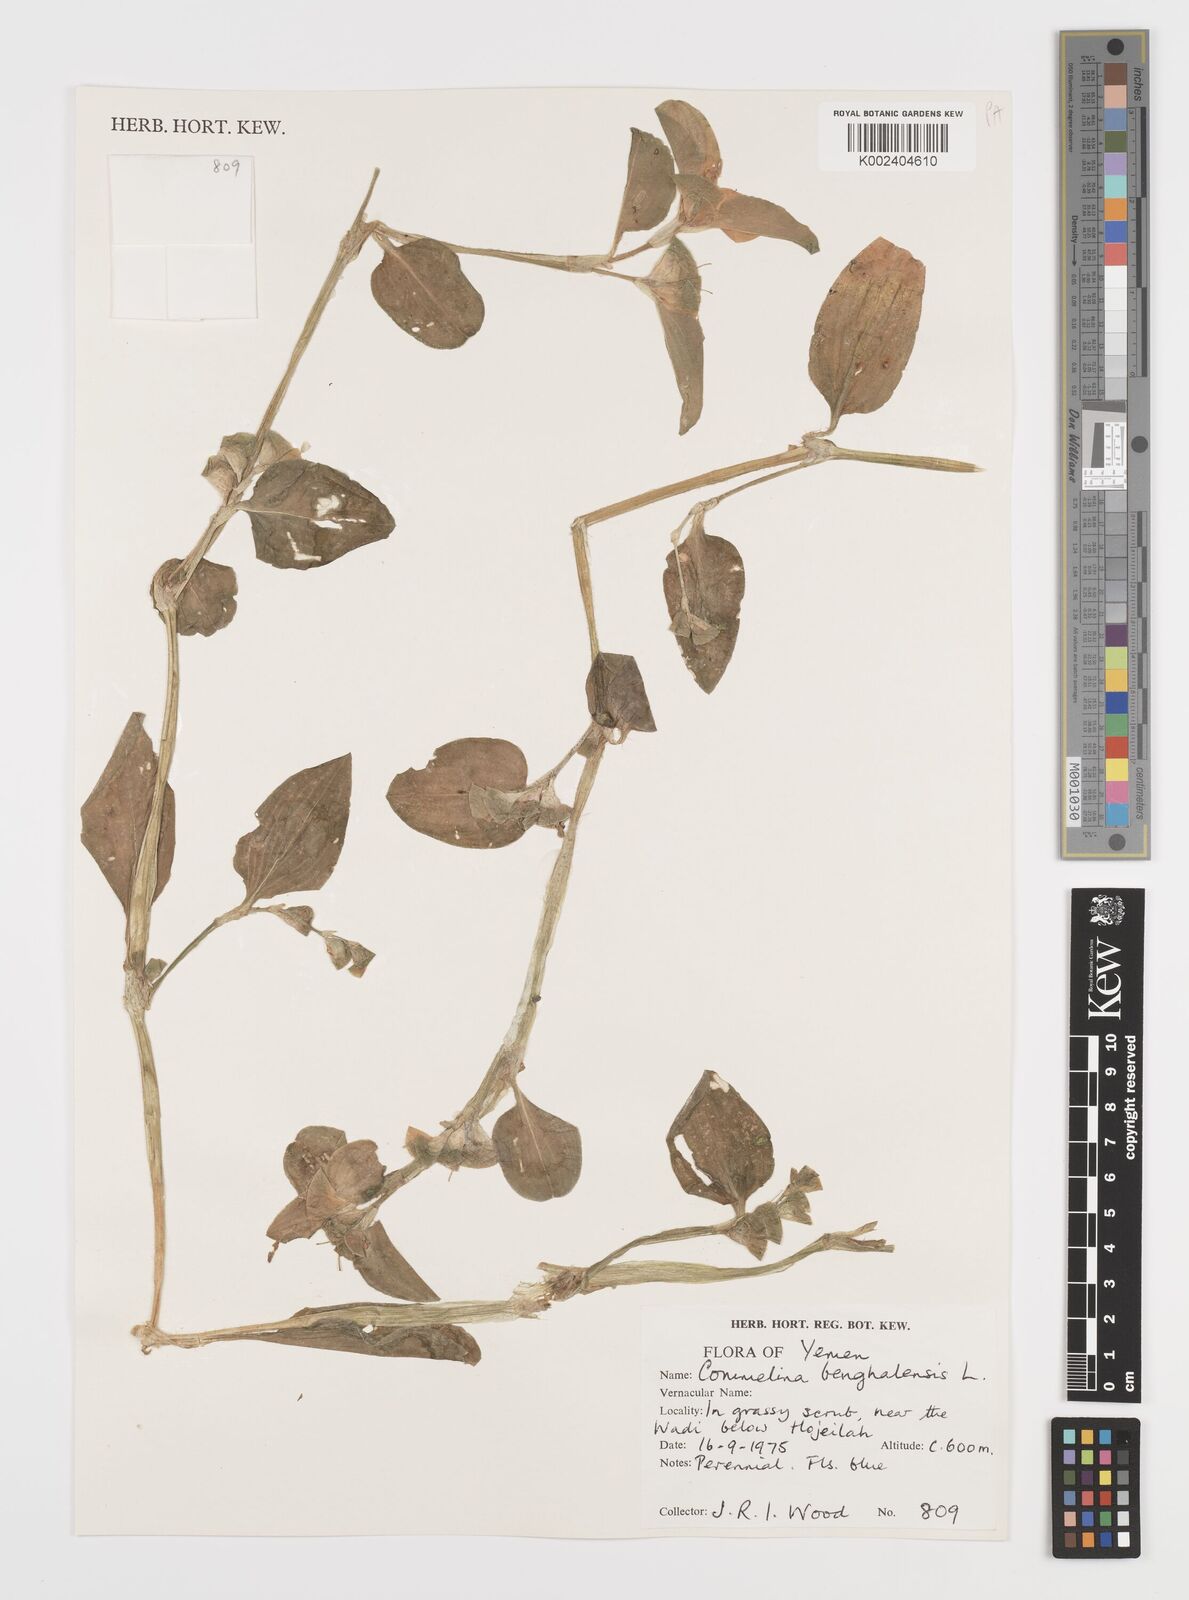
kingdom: Plantae
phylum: Tracheophyta
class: Liliopsida
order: Commelinales
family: Commelinaceae
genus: Commelina
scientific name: Commelina benghalensis
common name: Jio
